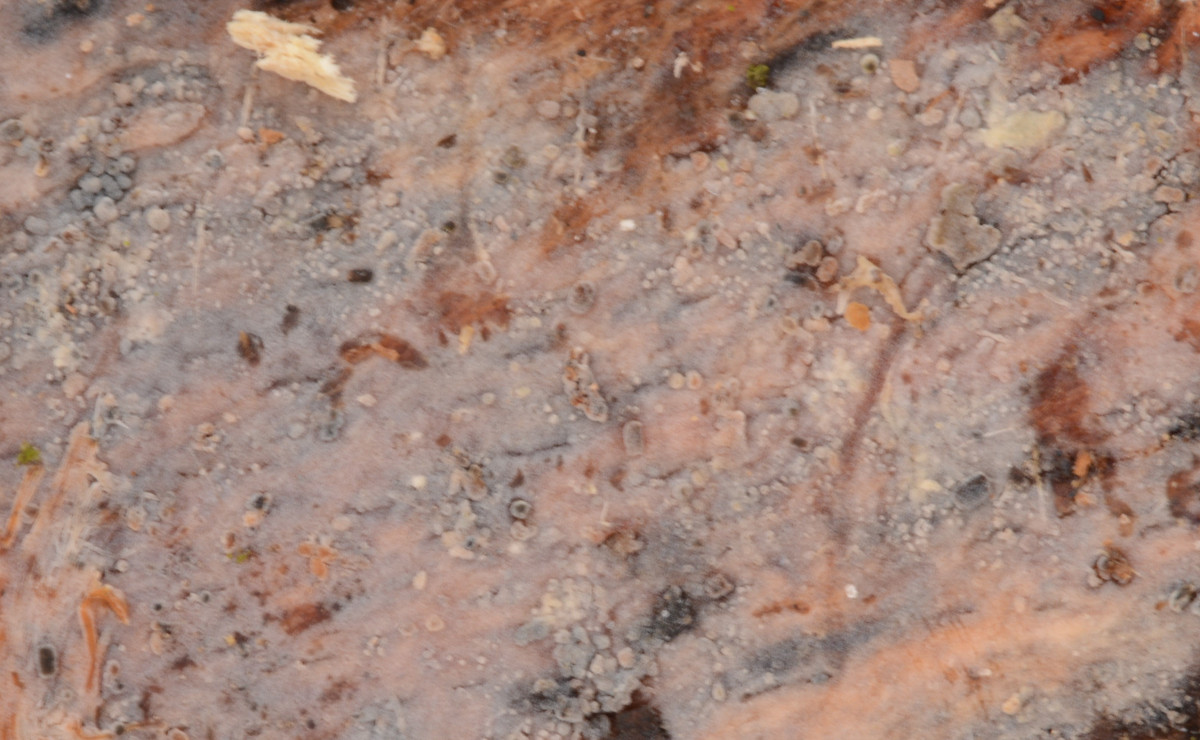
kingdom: Fungi
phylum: Basidiomycota
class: Agaricomycetes
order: Russulales
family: Xenasmataceae
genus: Xenasma
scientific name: Xenasma tulasnelloideum
